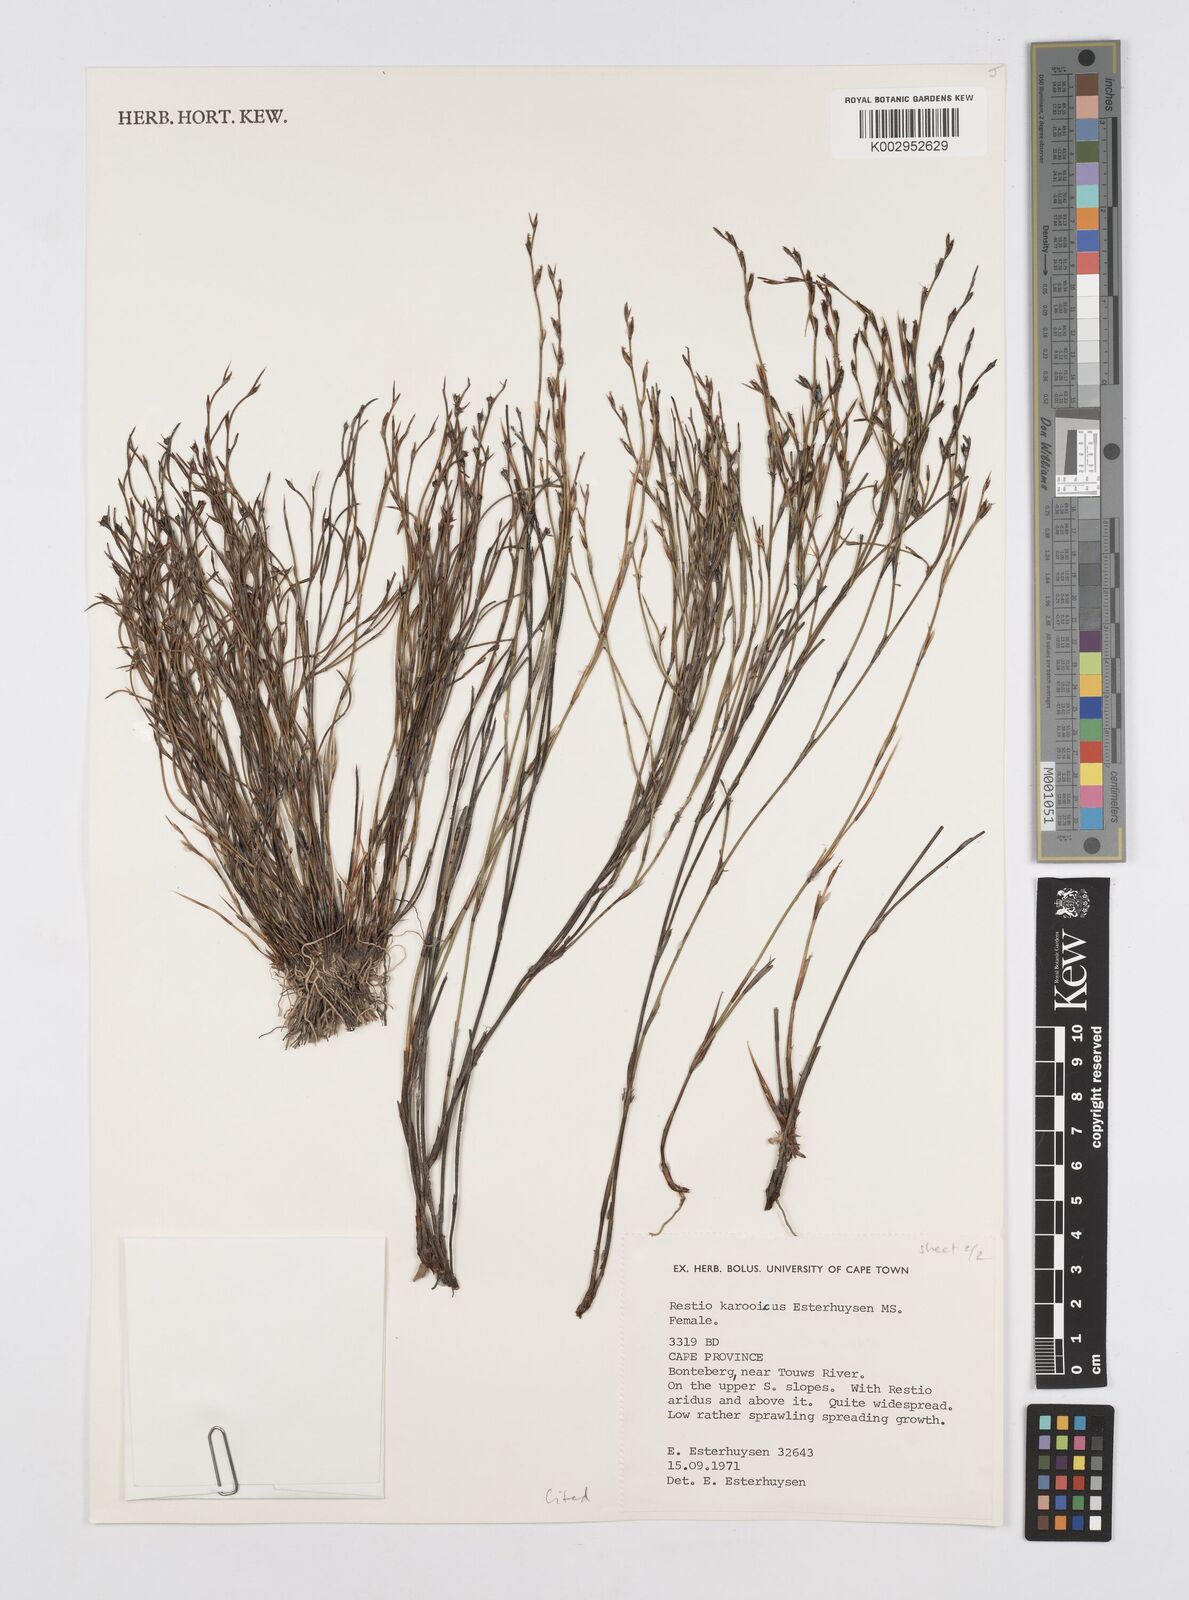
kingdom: Plantae
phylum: Tracheophyta
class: Liliopsida
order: Poales
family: Restionaceae
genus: Restio
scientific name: Restio karooicus
